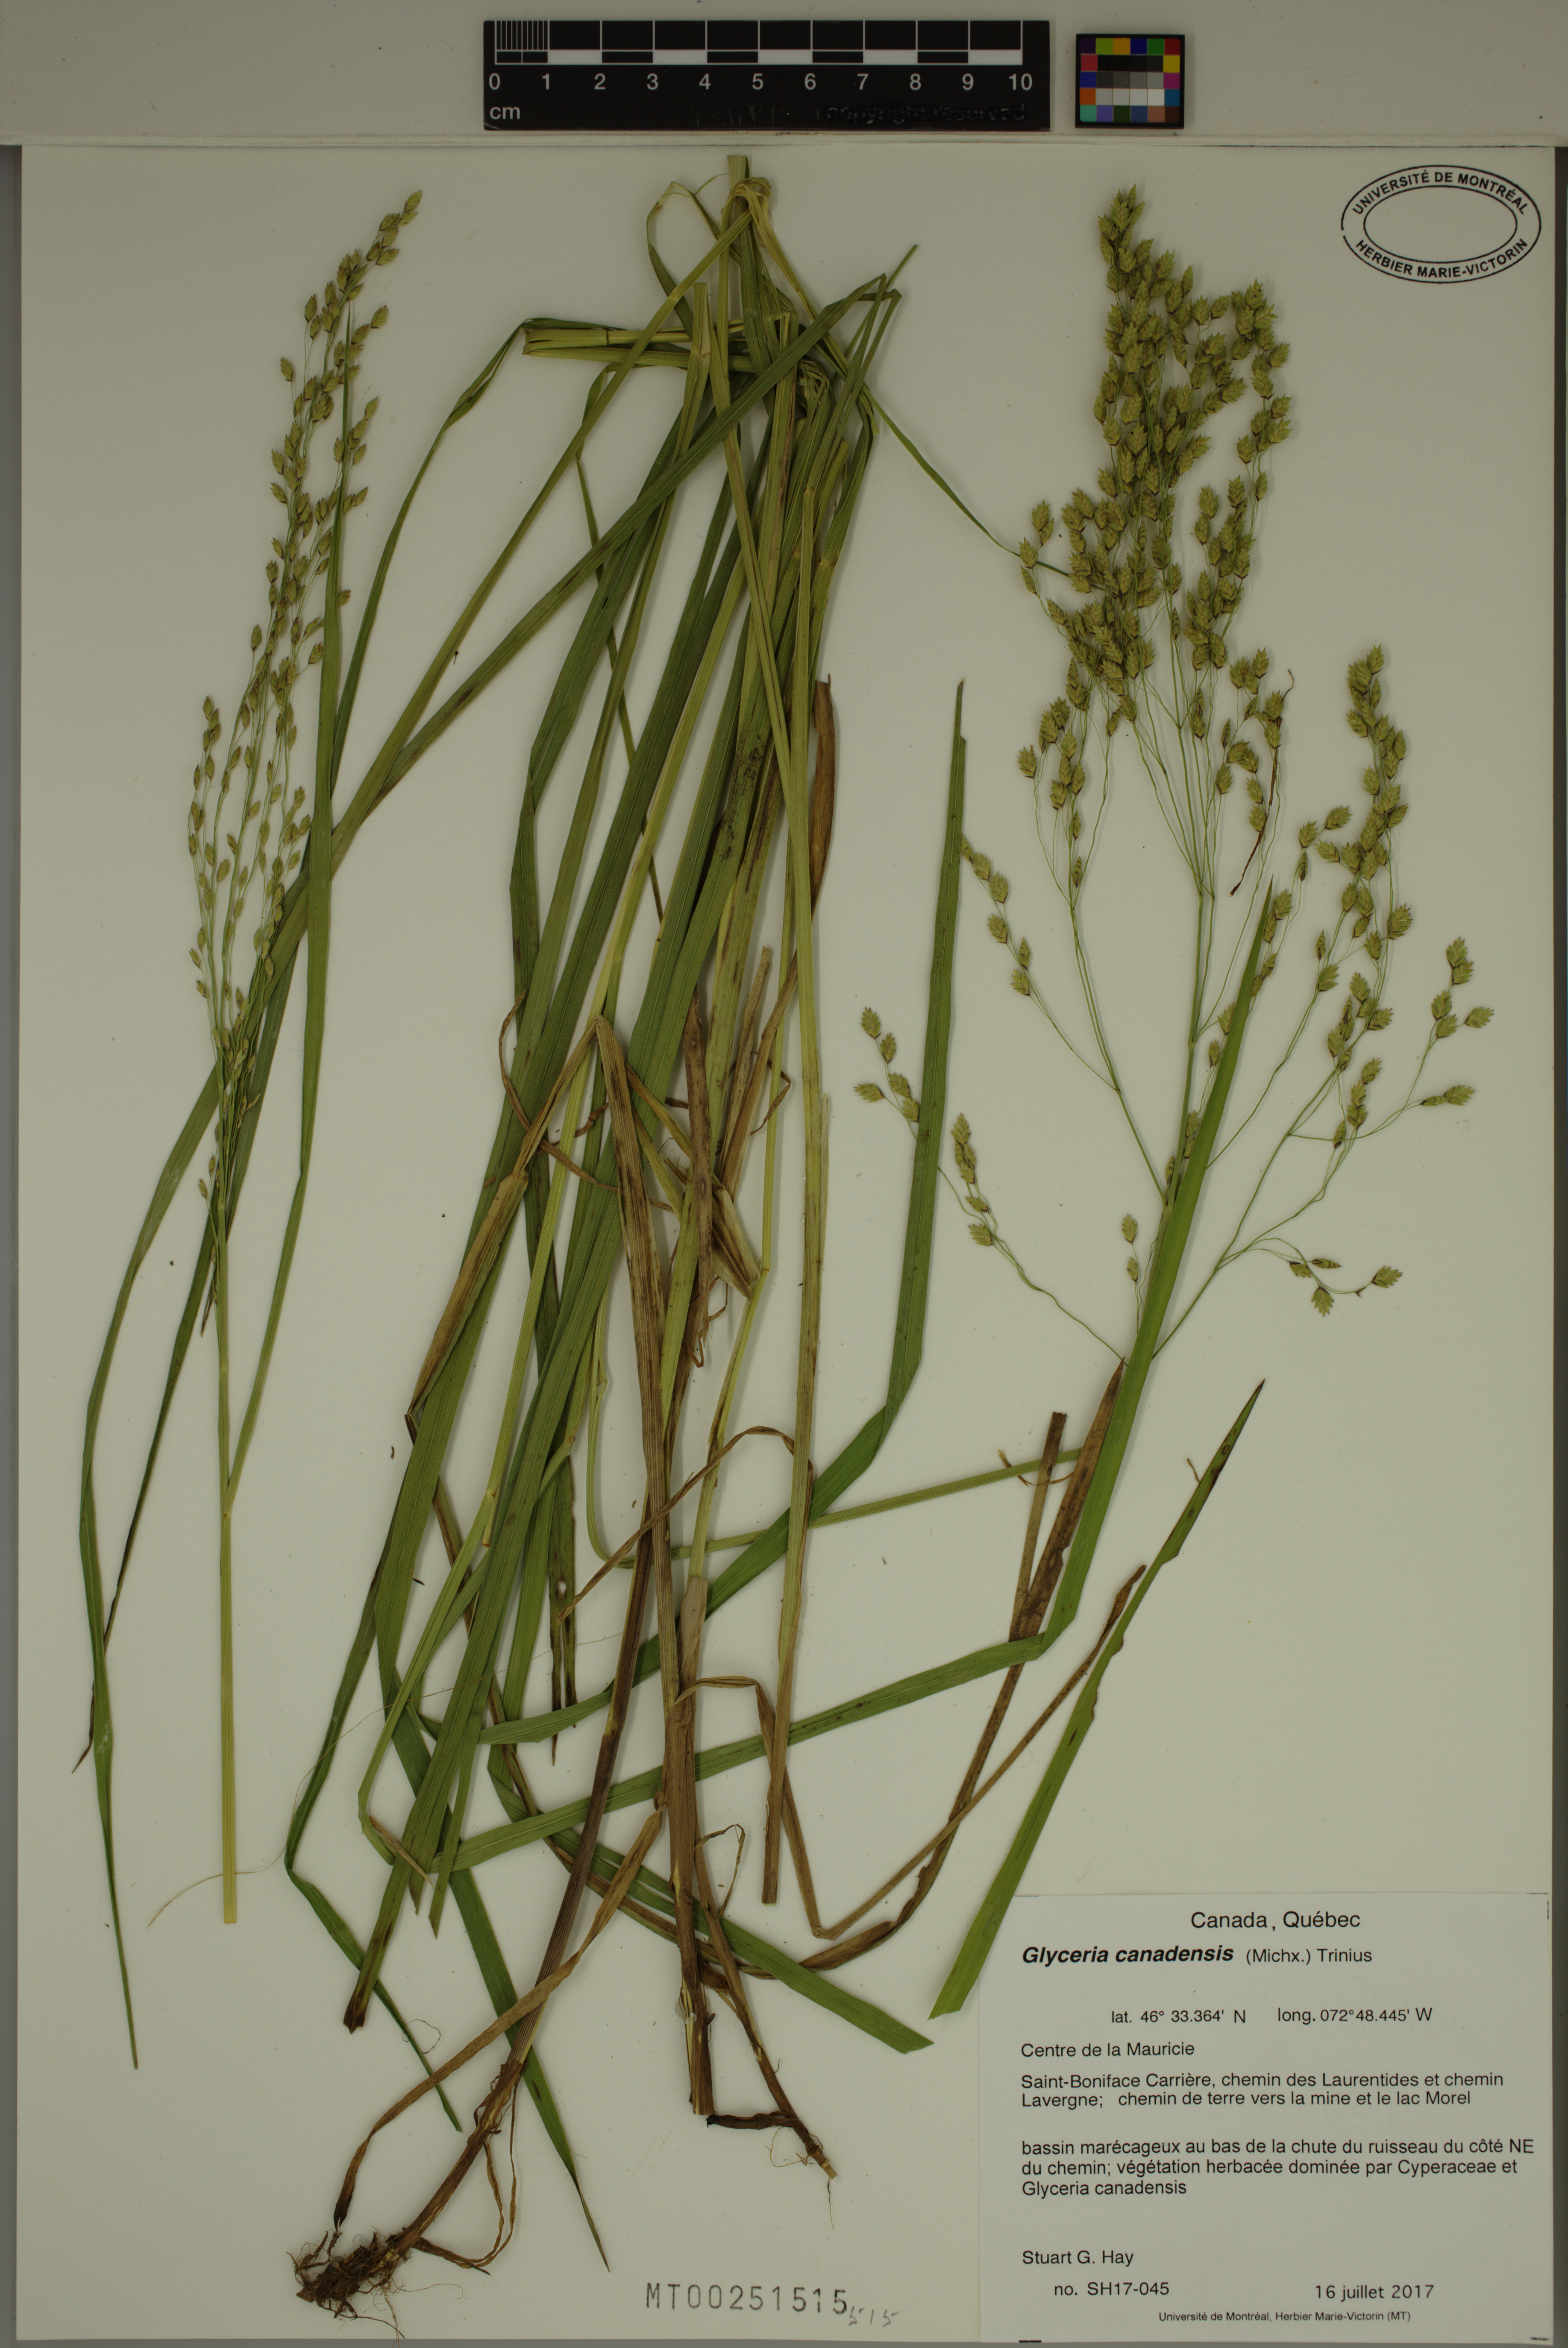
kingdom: Plantae
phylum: Tracheophyta
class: Liliopsida
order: Poales
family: Poaceae
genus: Glyceria
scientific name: Glyceria canadensis
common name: Canada mannagrass
